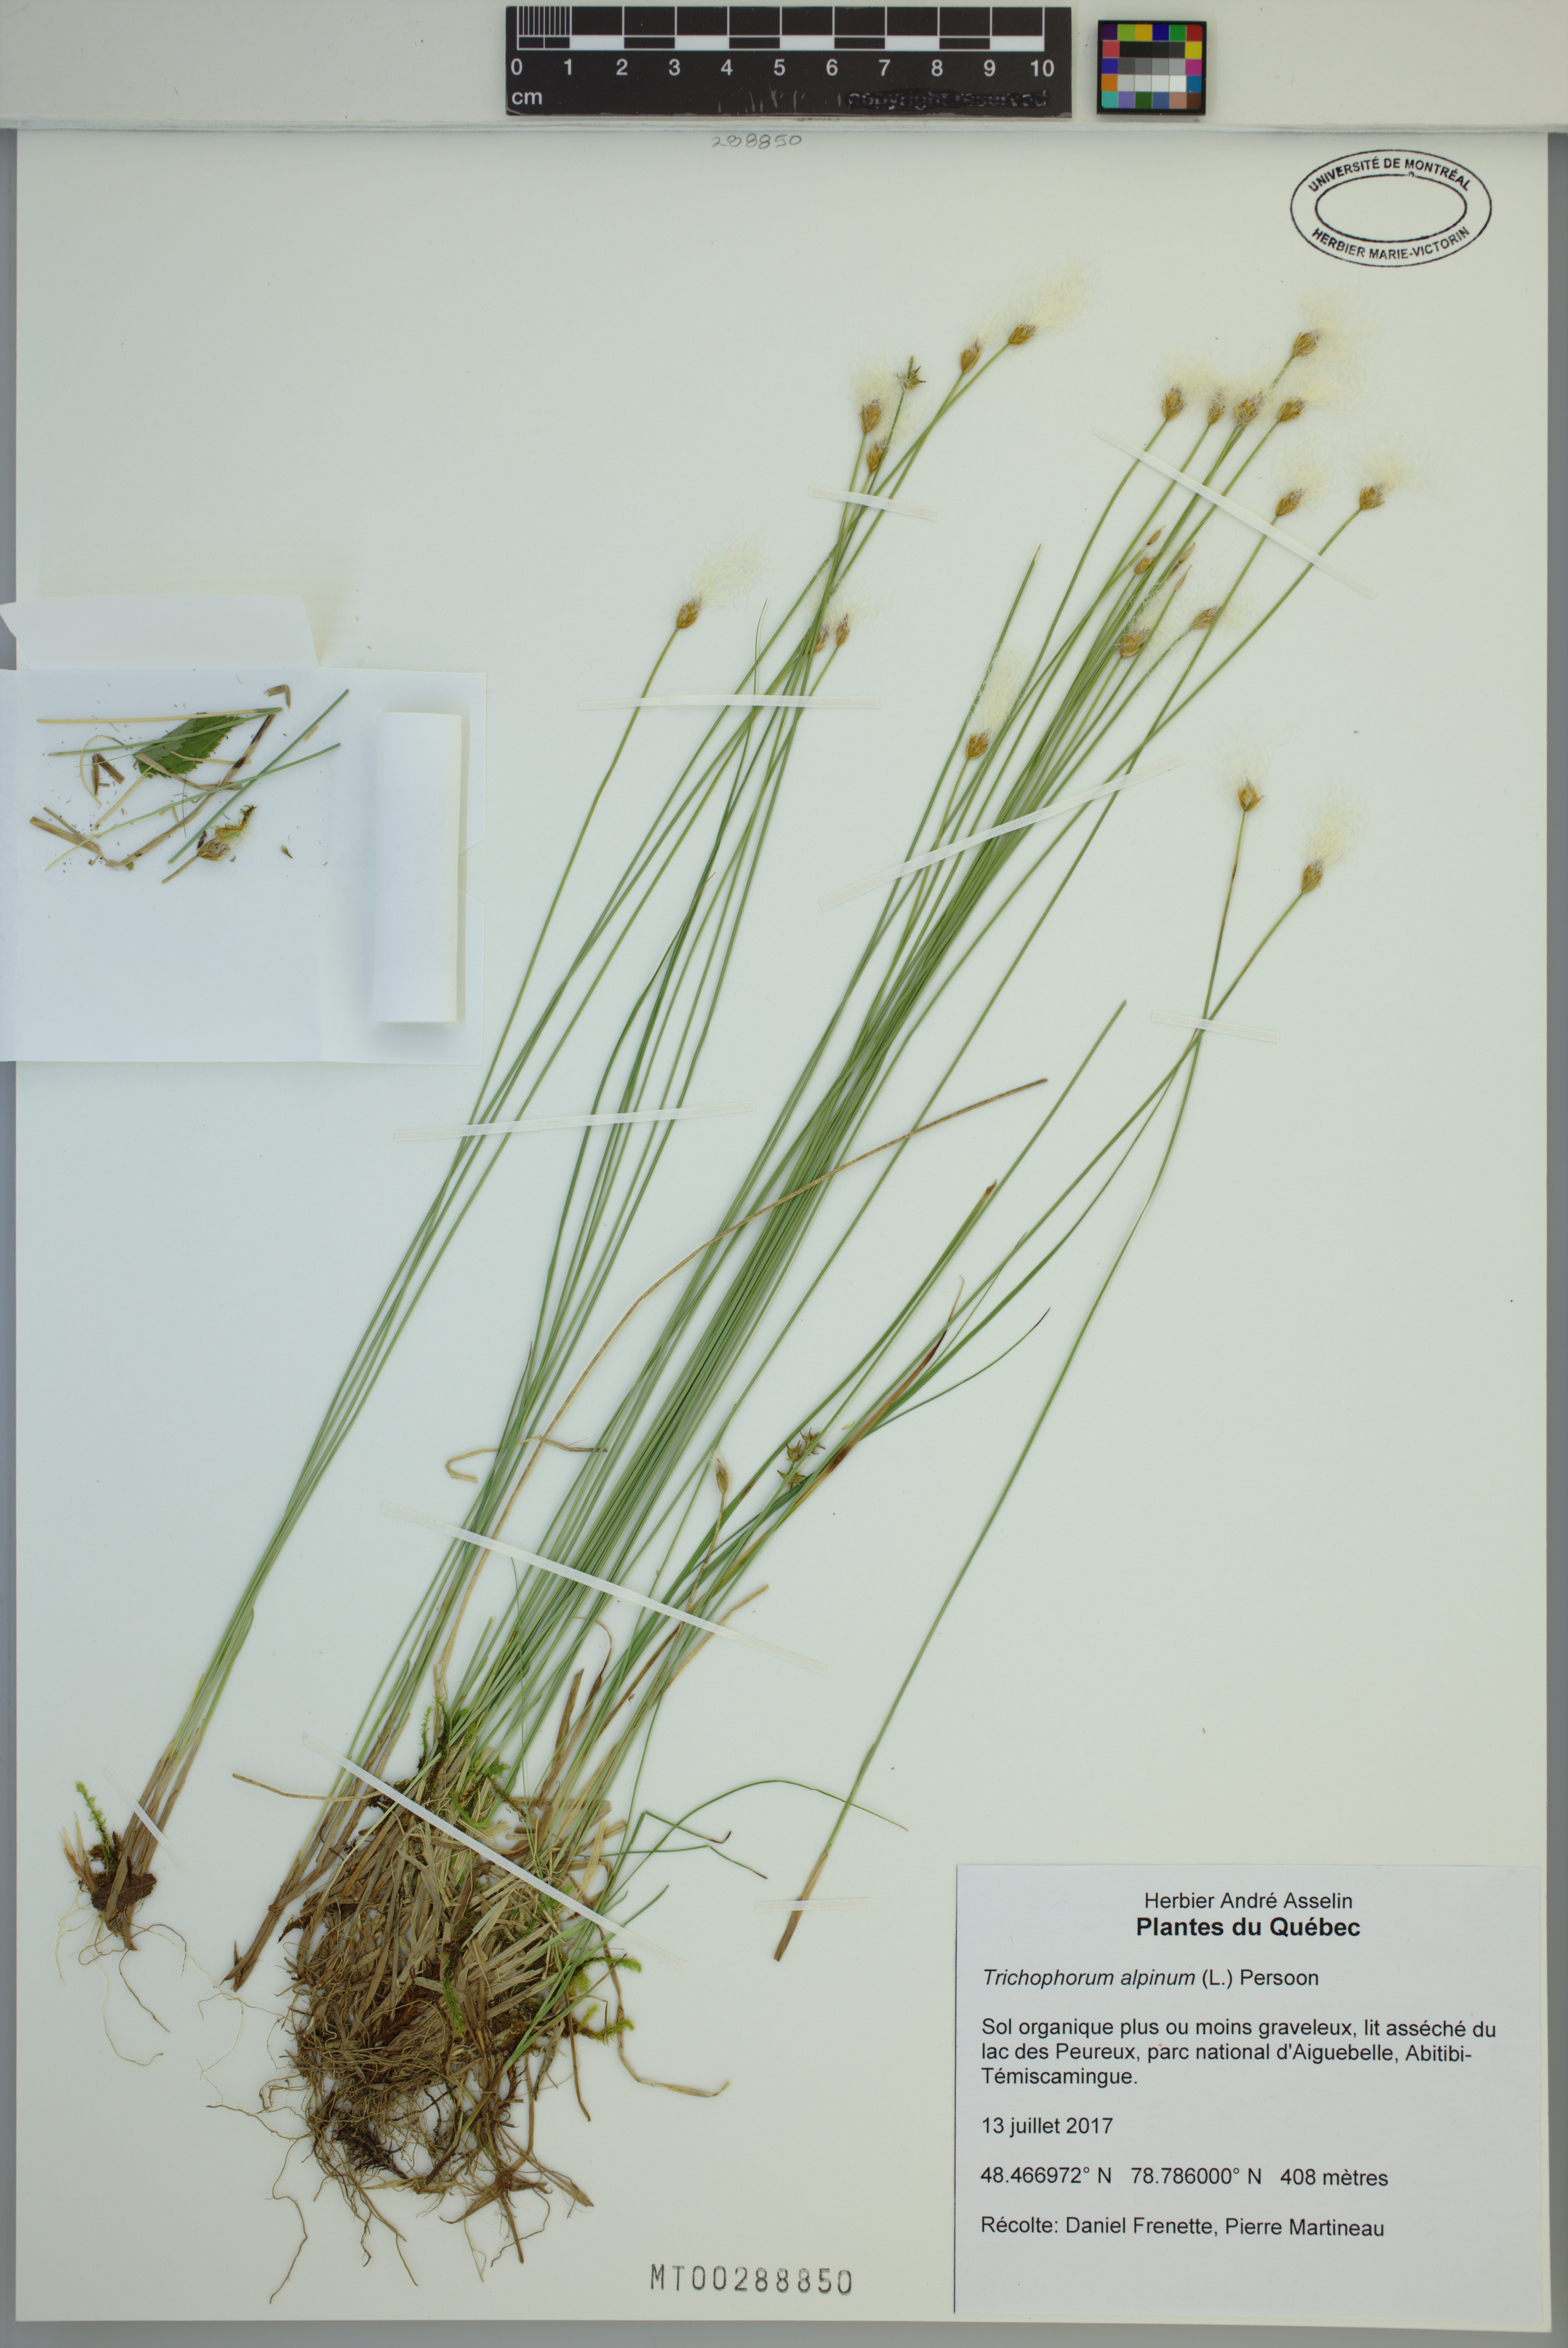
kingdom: Plantae
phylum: Tracheophyta
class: Liliopsida
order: Poales
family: Cyperaceae
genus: Trichophorum
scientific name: Trichophorum alpinum
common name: Alpine bulrush
